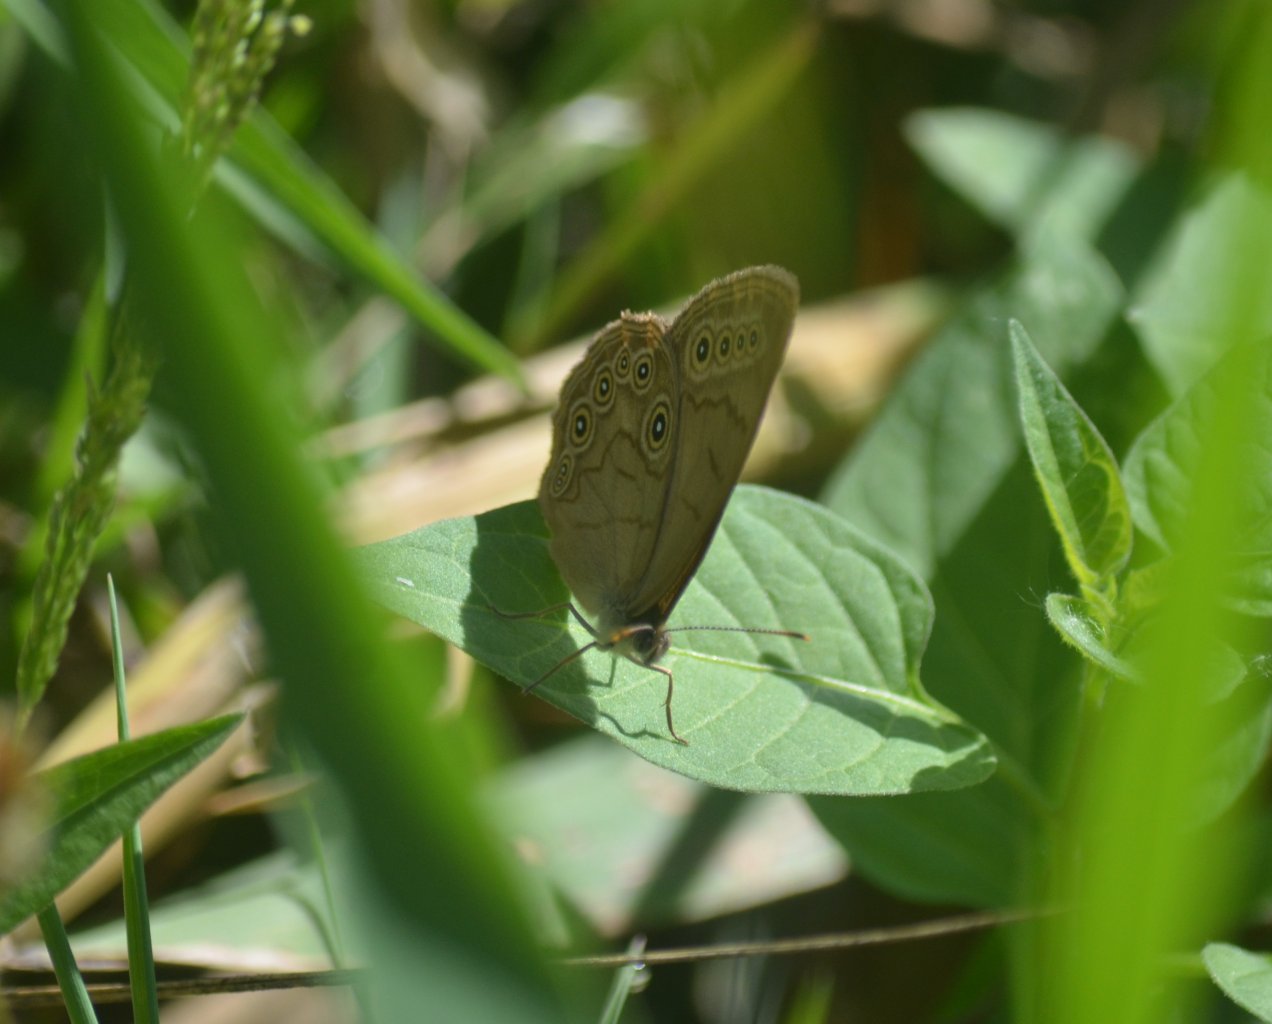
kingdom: Animalia
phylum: Arthropoda
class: Insecta
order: Lepidoptera
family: Nymphalidae
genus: Lethe
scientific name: Lethe eurydice
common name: Eyed Brown
